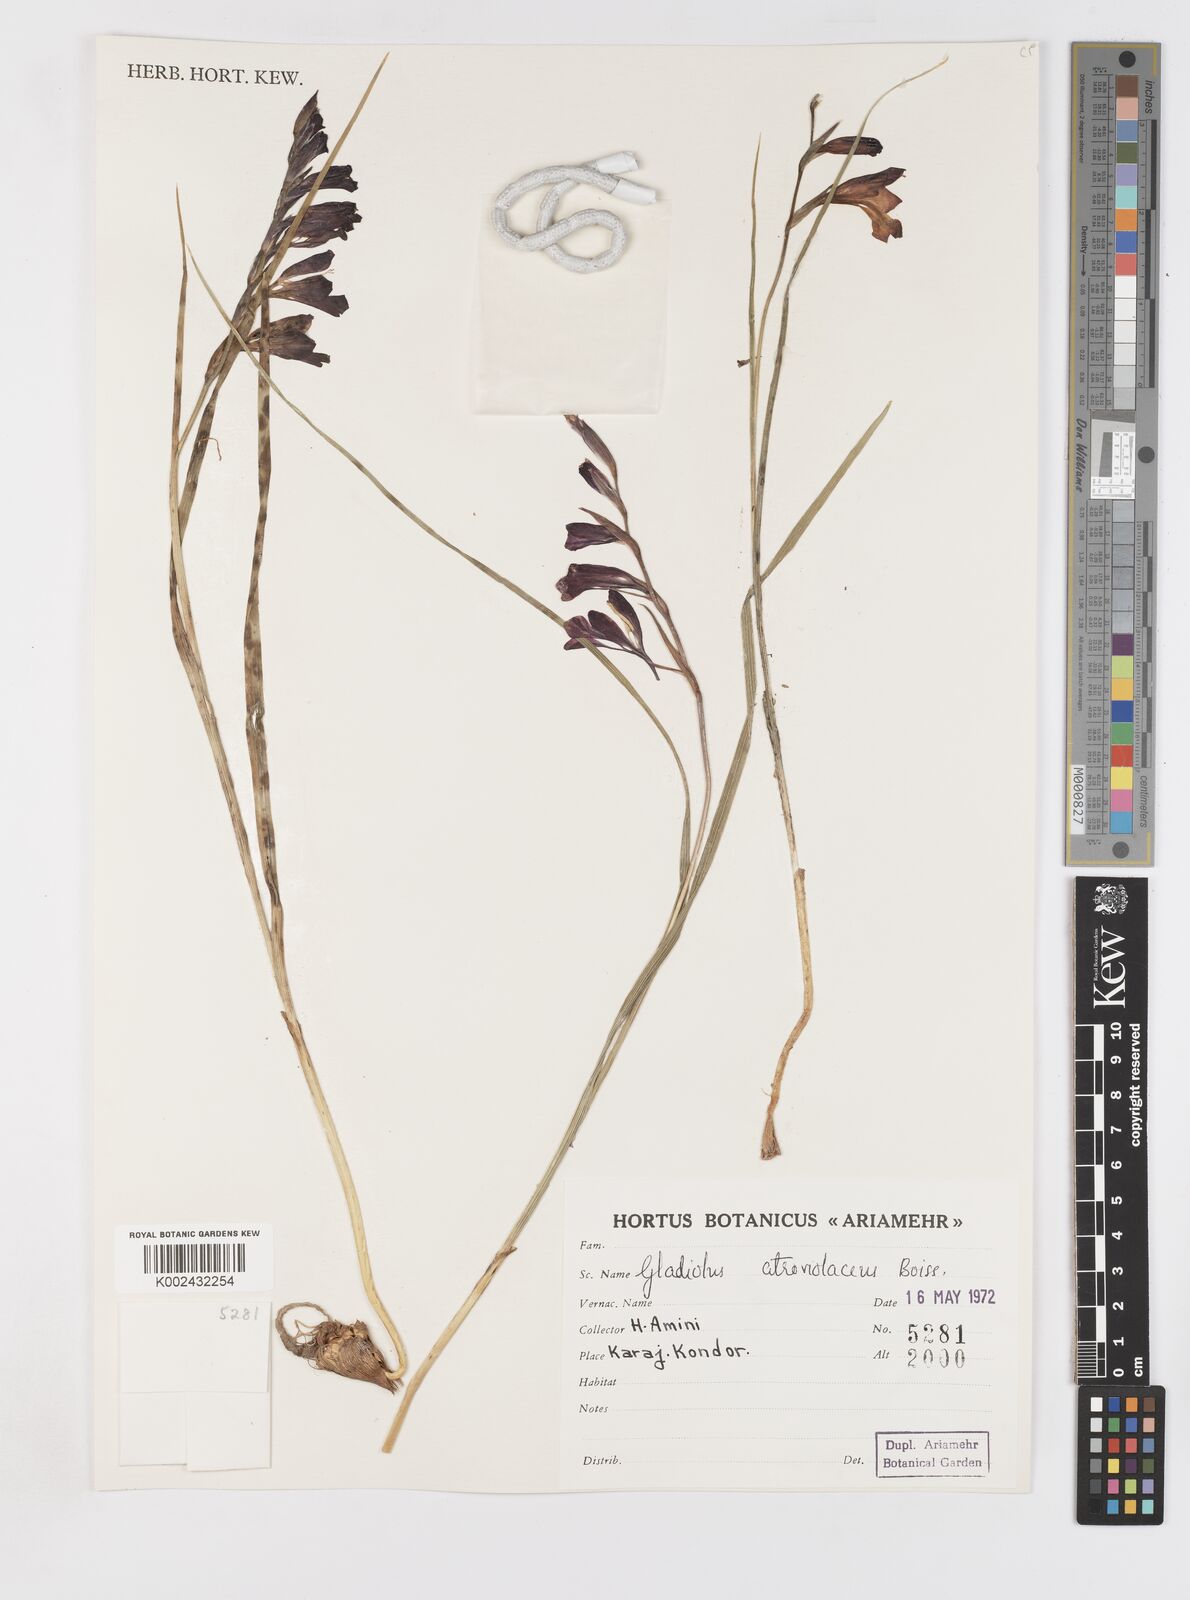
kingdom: Plantae
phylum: Tracheophyta
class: Liliopsida
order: Asparagales
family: Iridaceae
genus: Gladiolus
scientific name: Gladiolus atroviolaceus
